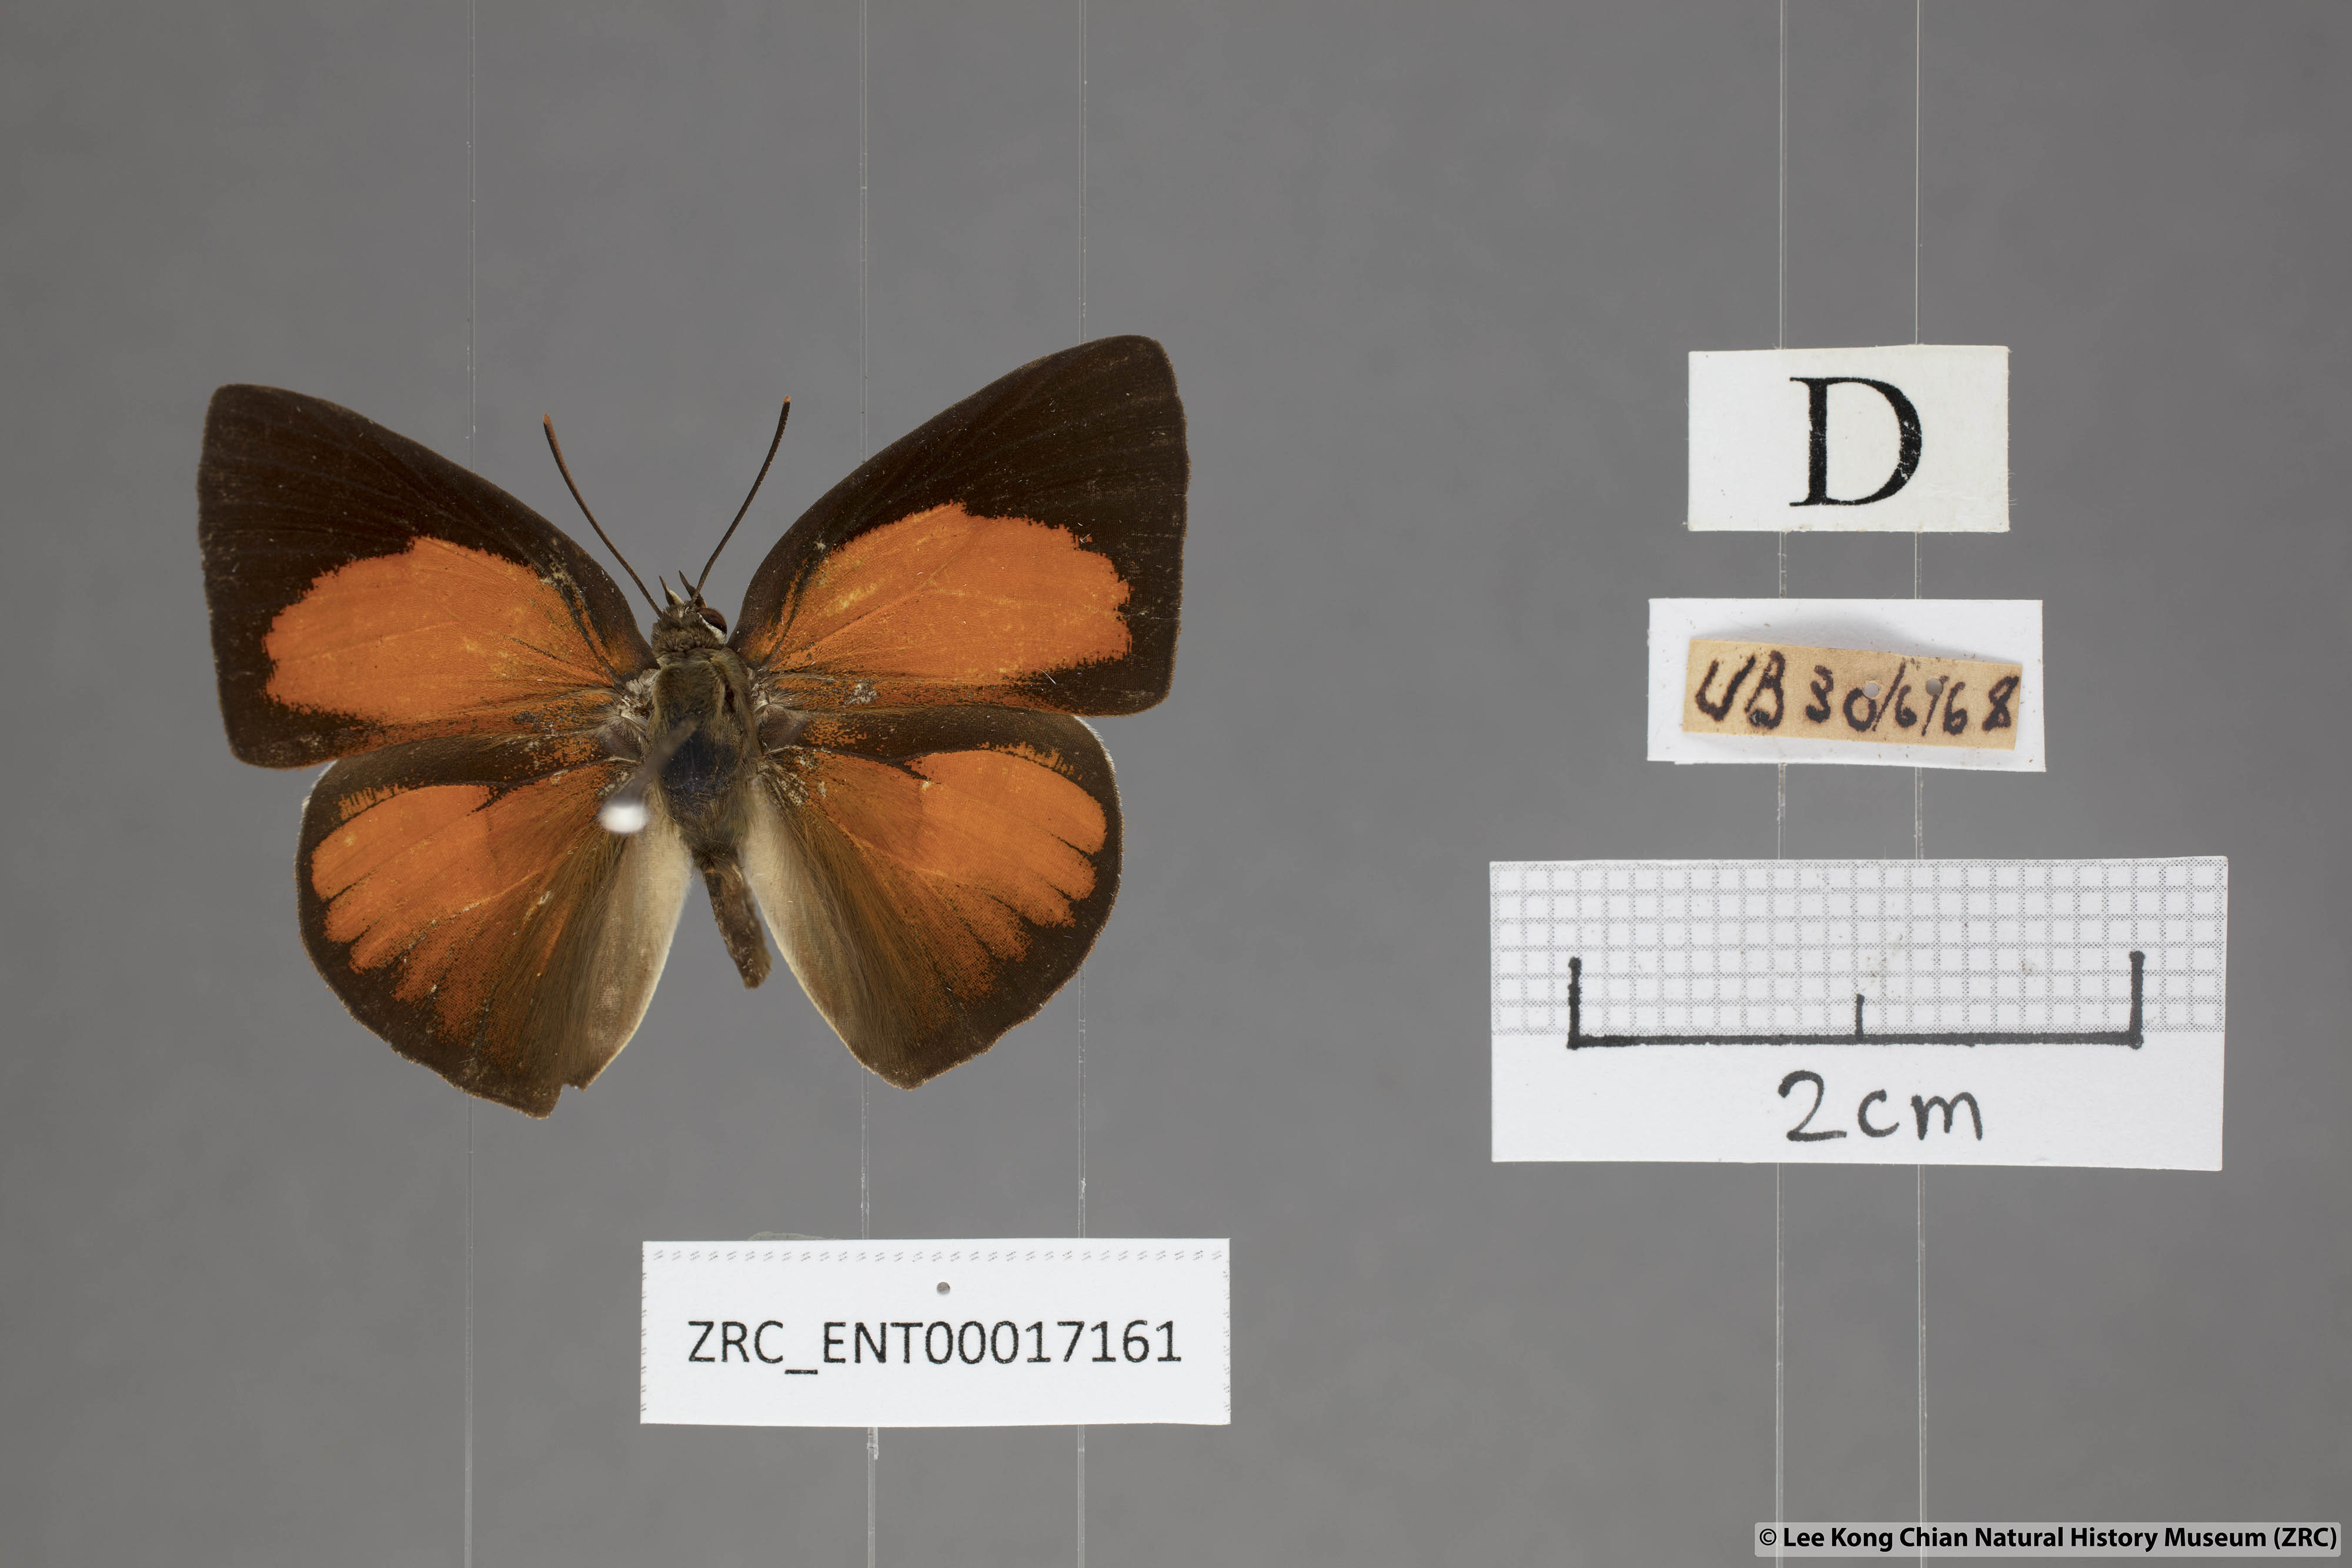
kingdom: Animalia
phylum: Arthropoda
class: Insecta
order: Lepidoptera
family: Lycaenidae
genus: Curetis
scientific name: Curetis sperthis
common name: Rounded sunbeam
